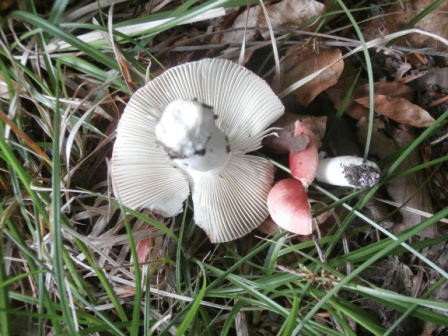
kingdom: Fungi
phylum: Basidiomycota
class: Agaricomycetes
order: Russulales
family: Russulaceae
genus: Russula
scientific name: Russula nobilis
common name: lille gift-skørhat
